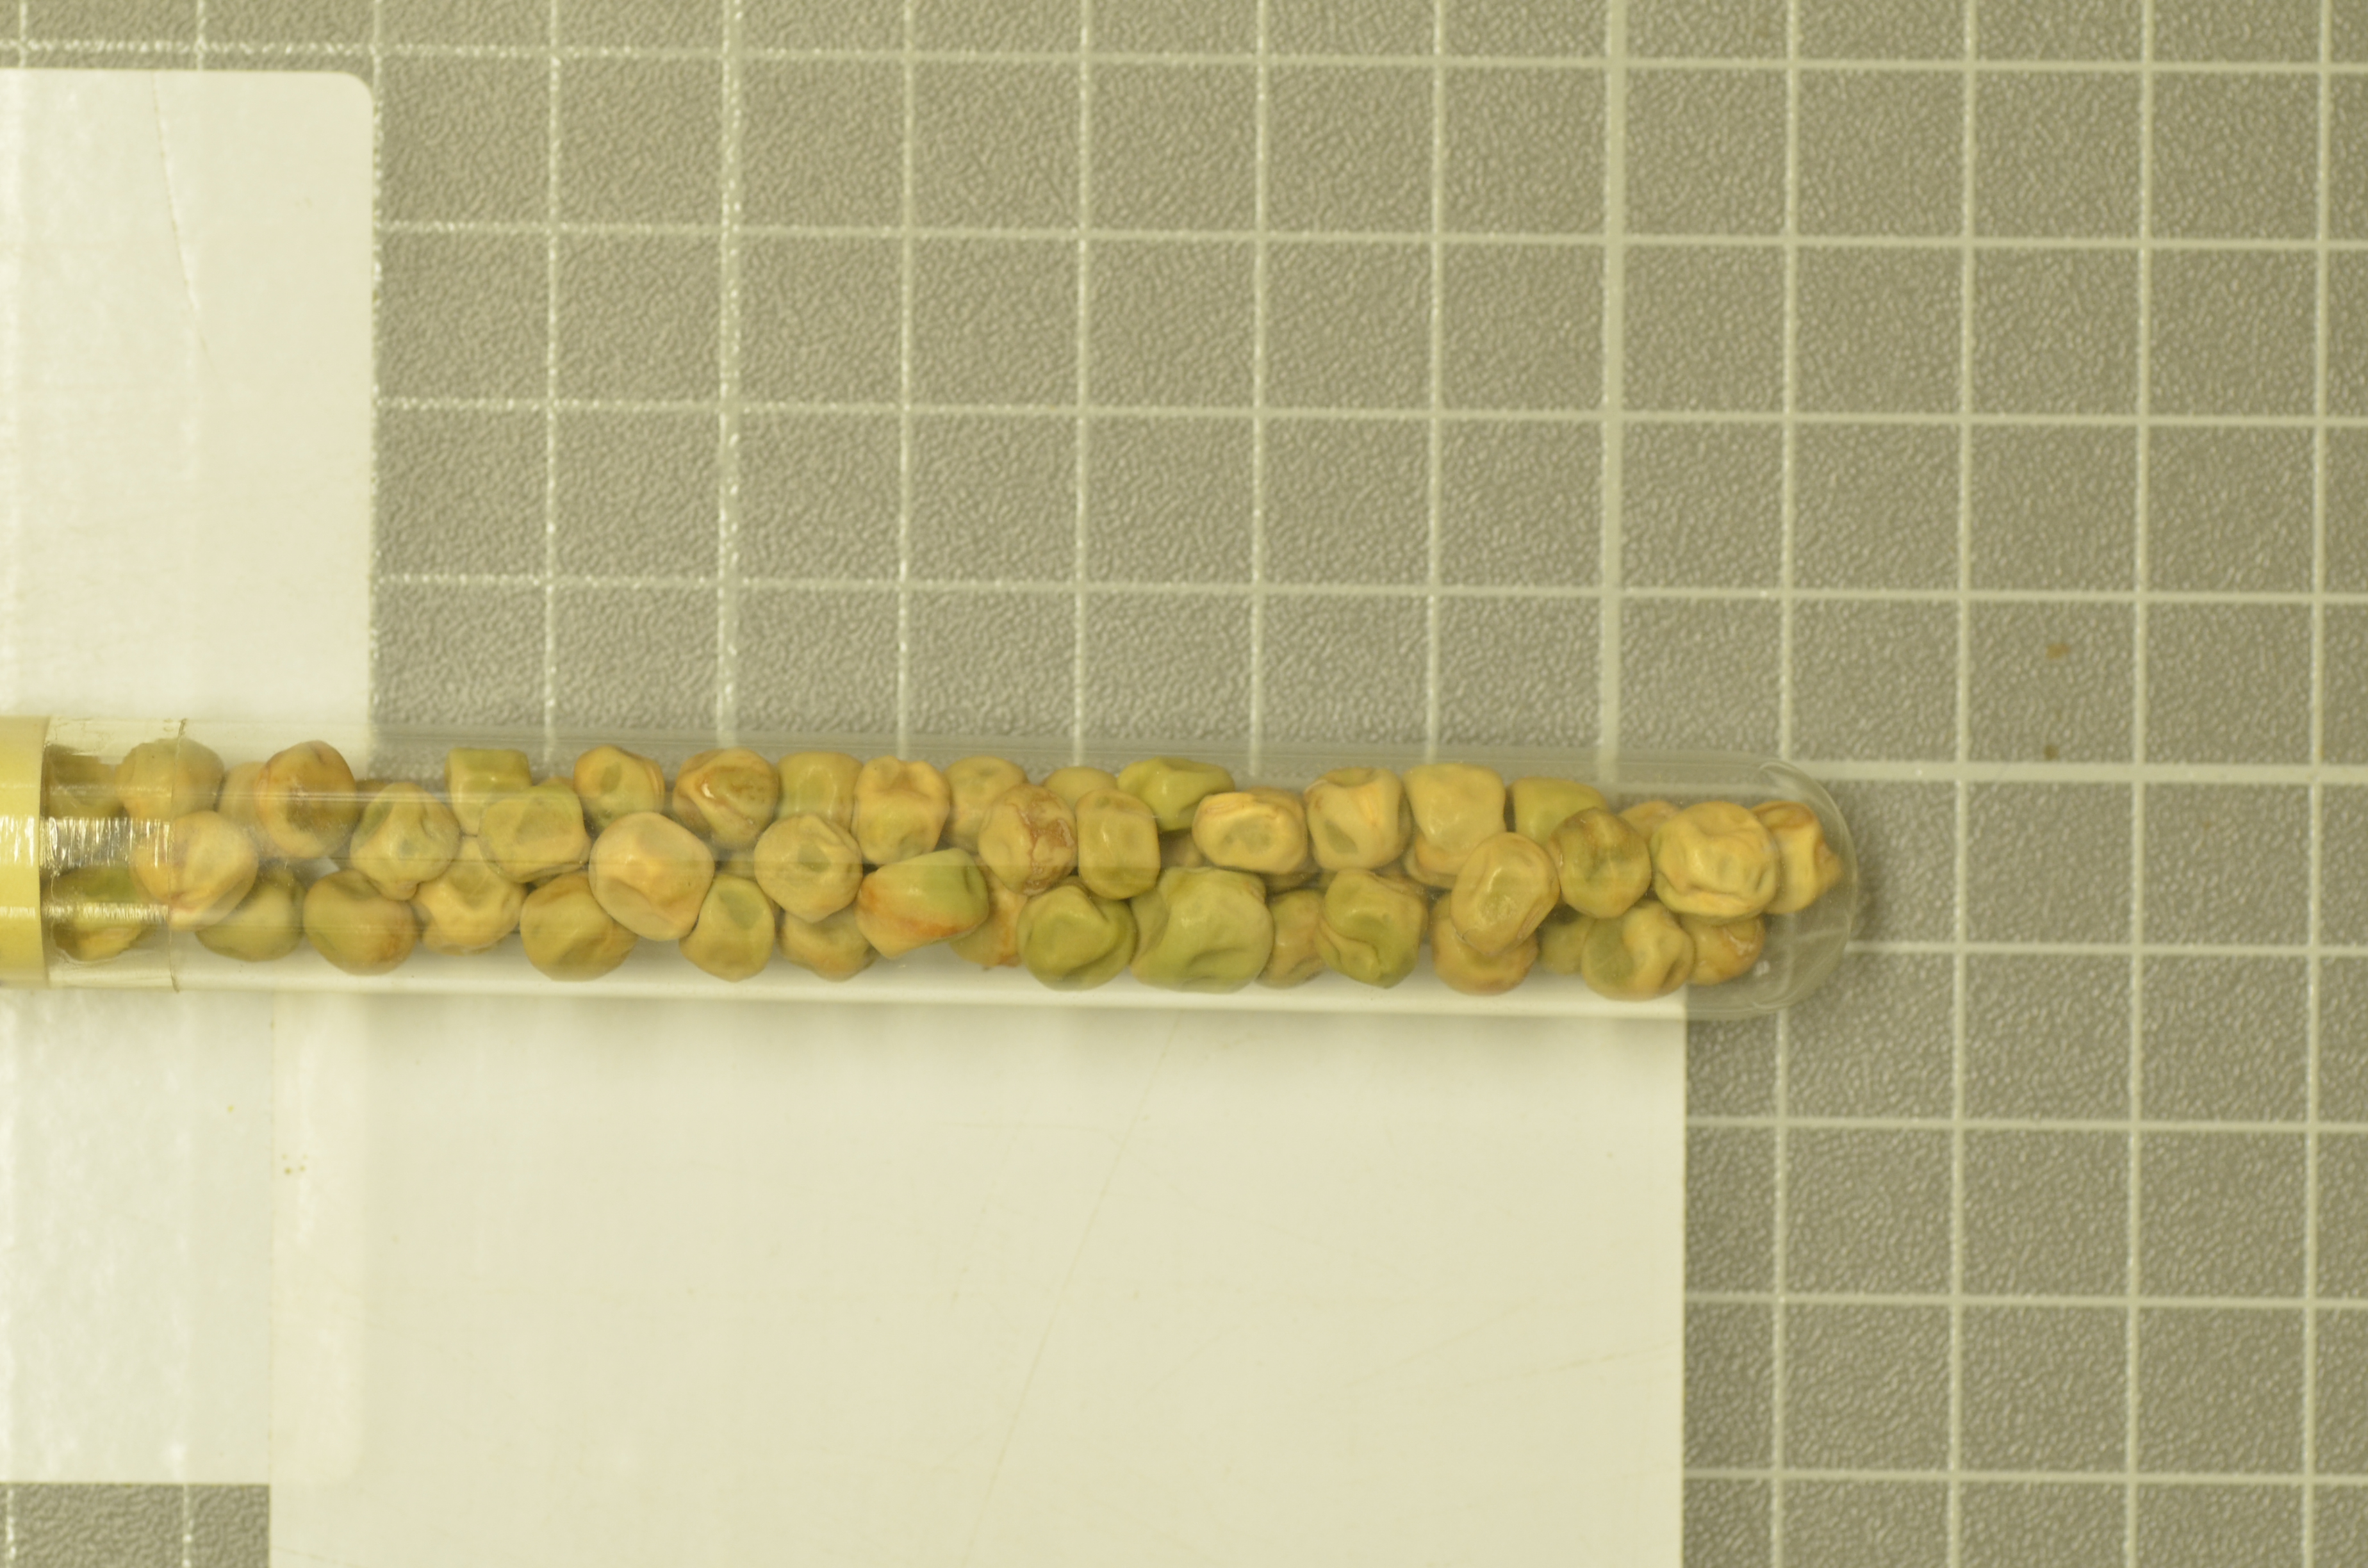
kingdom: Plantae
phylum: Tracheophyta
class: Magnoliopsida
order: Fabales
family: Fabaceae
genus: Lathyrus
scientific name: Lathyrus oleraceus
